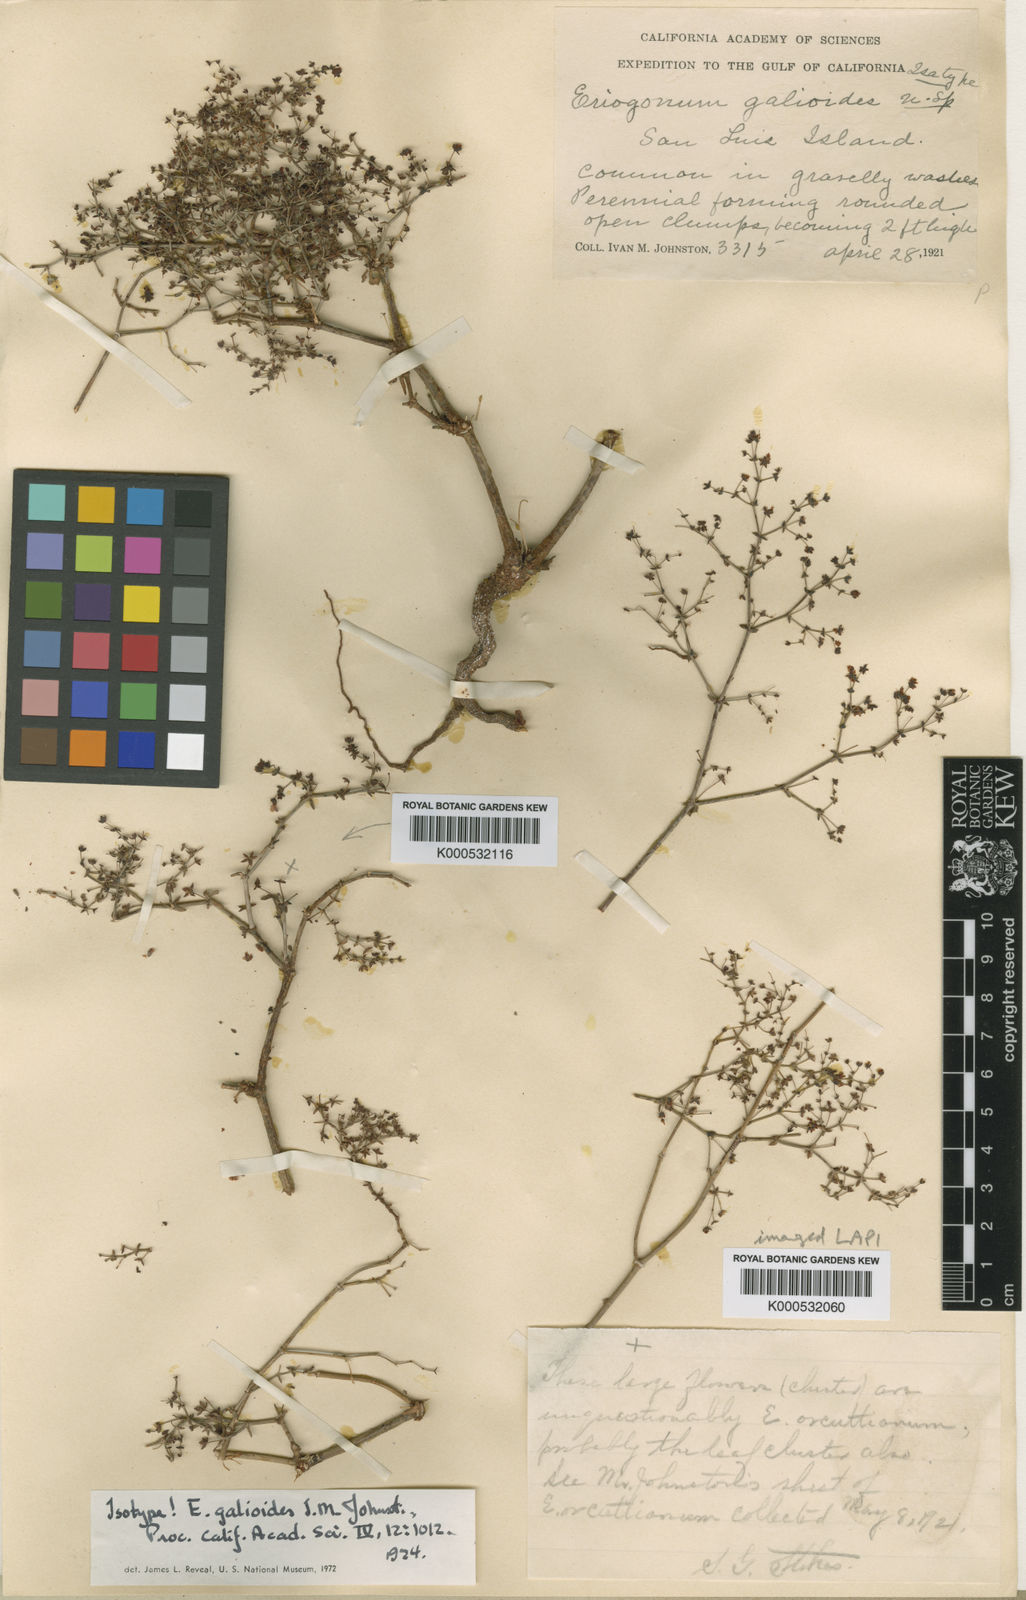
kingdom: Plantae
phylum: Tracheophyta
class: Magnoliopsida
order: Caryophyllales
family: Polygonaceae
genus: Eriogonum
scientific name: Eriogonum galioides
